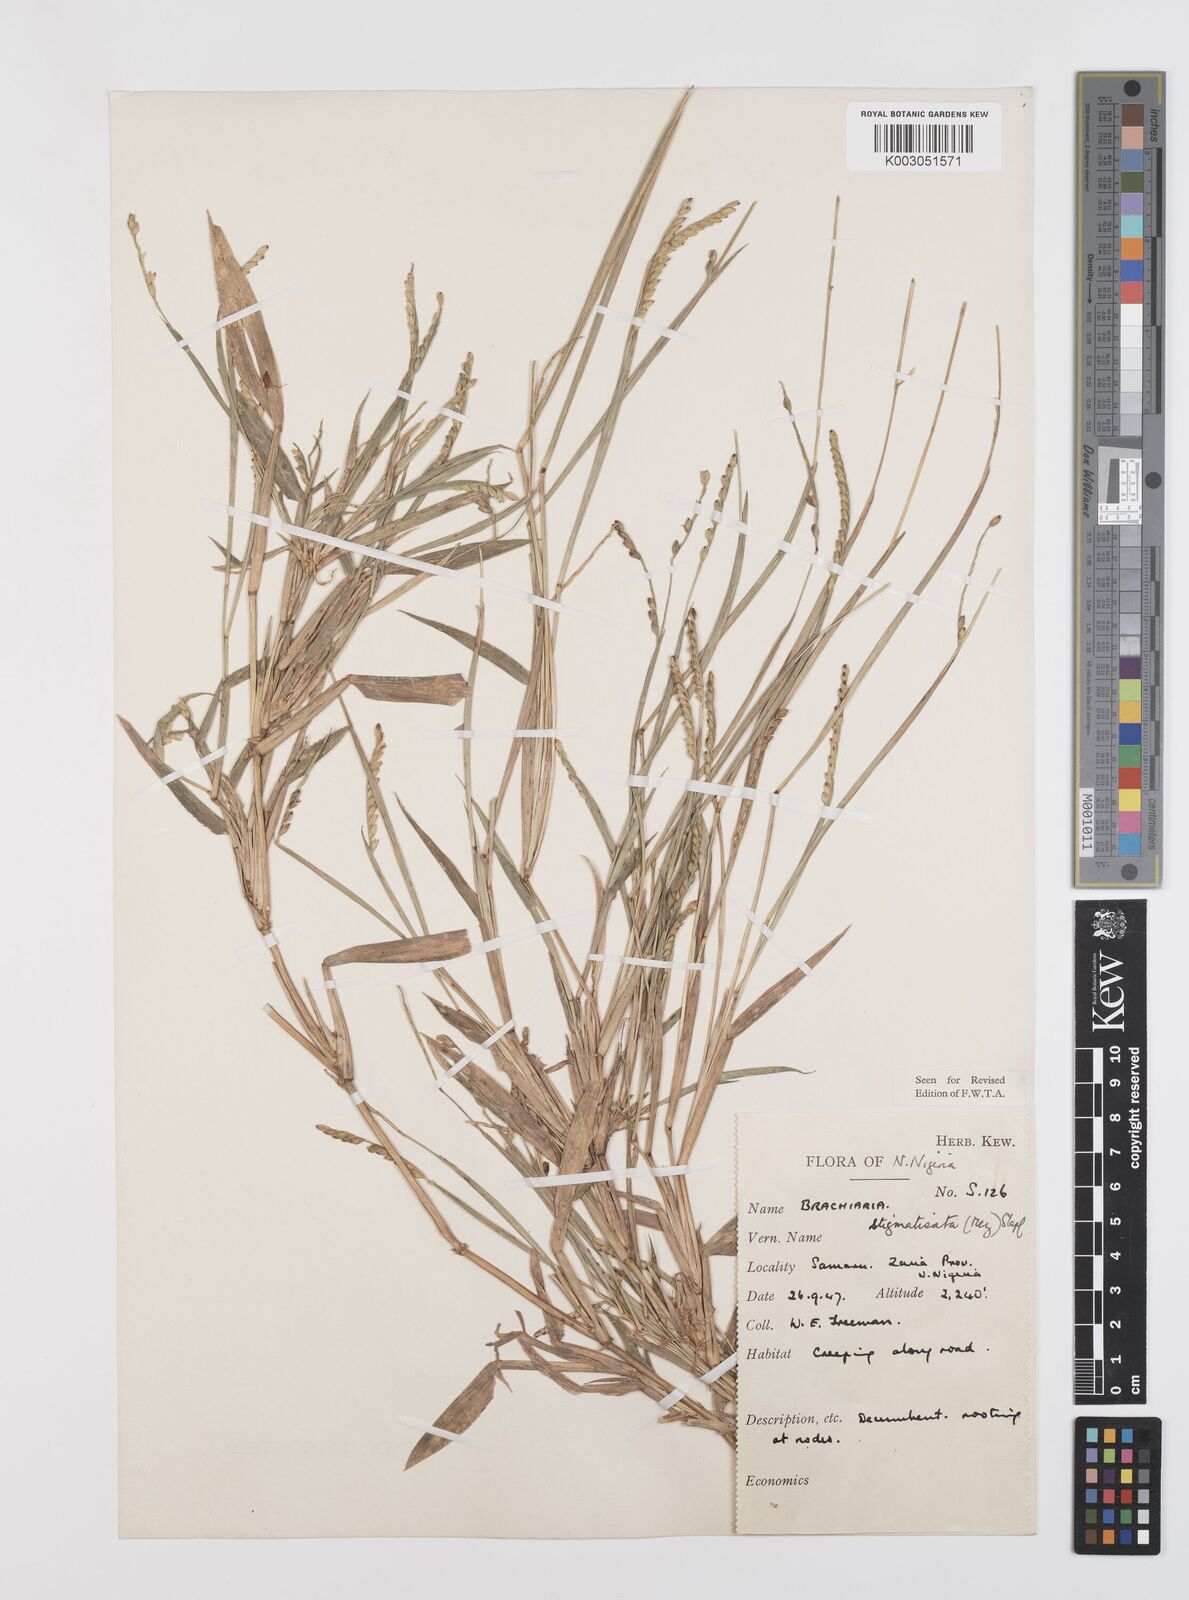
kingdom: Plantae
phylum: Tracheophyta
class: Liliopsida
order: Poales
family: Poaceae
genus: Urochloa
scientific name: Urochloa stigmatisata
